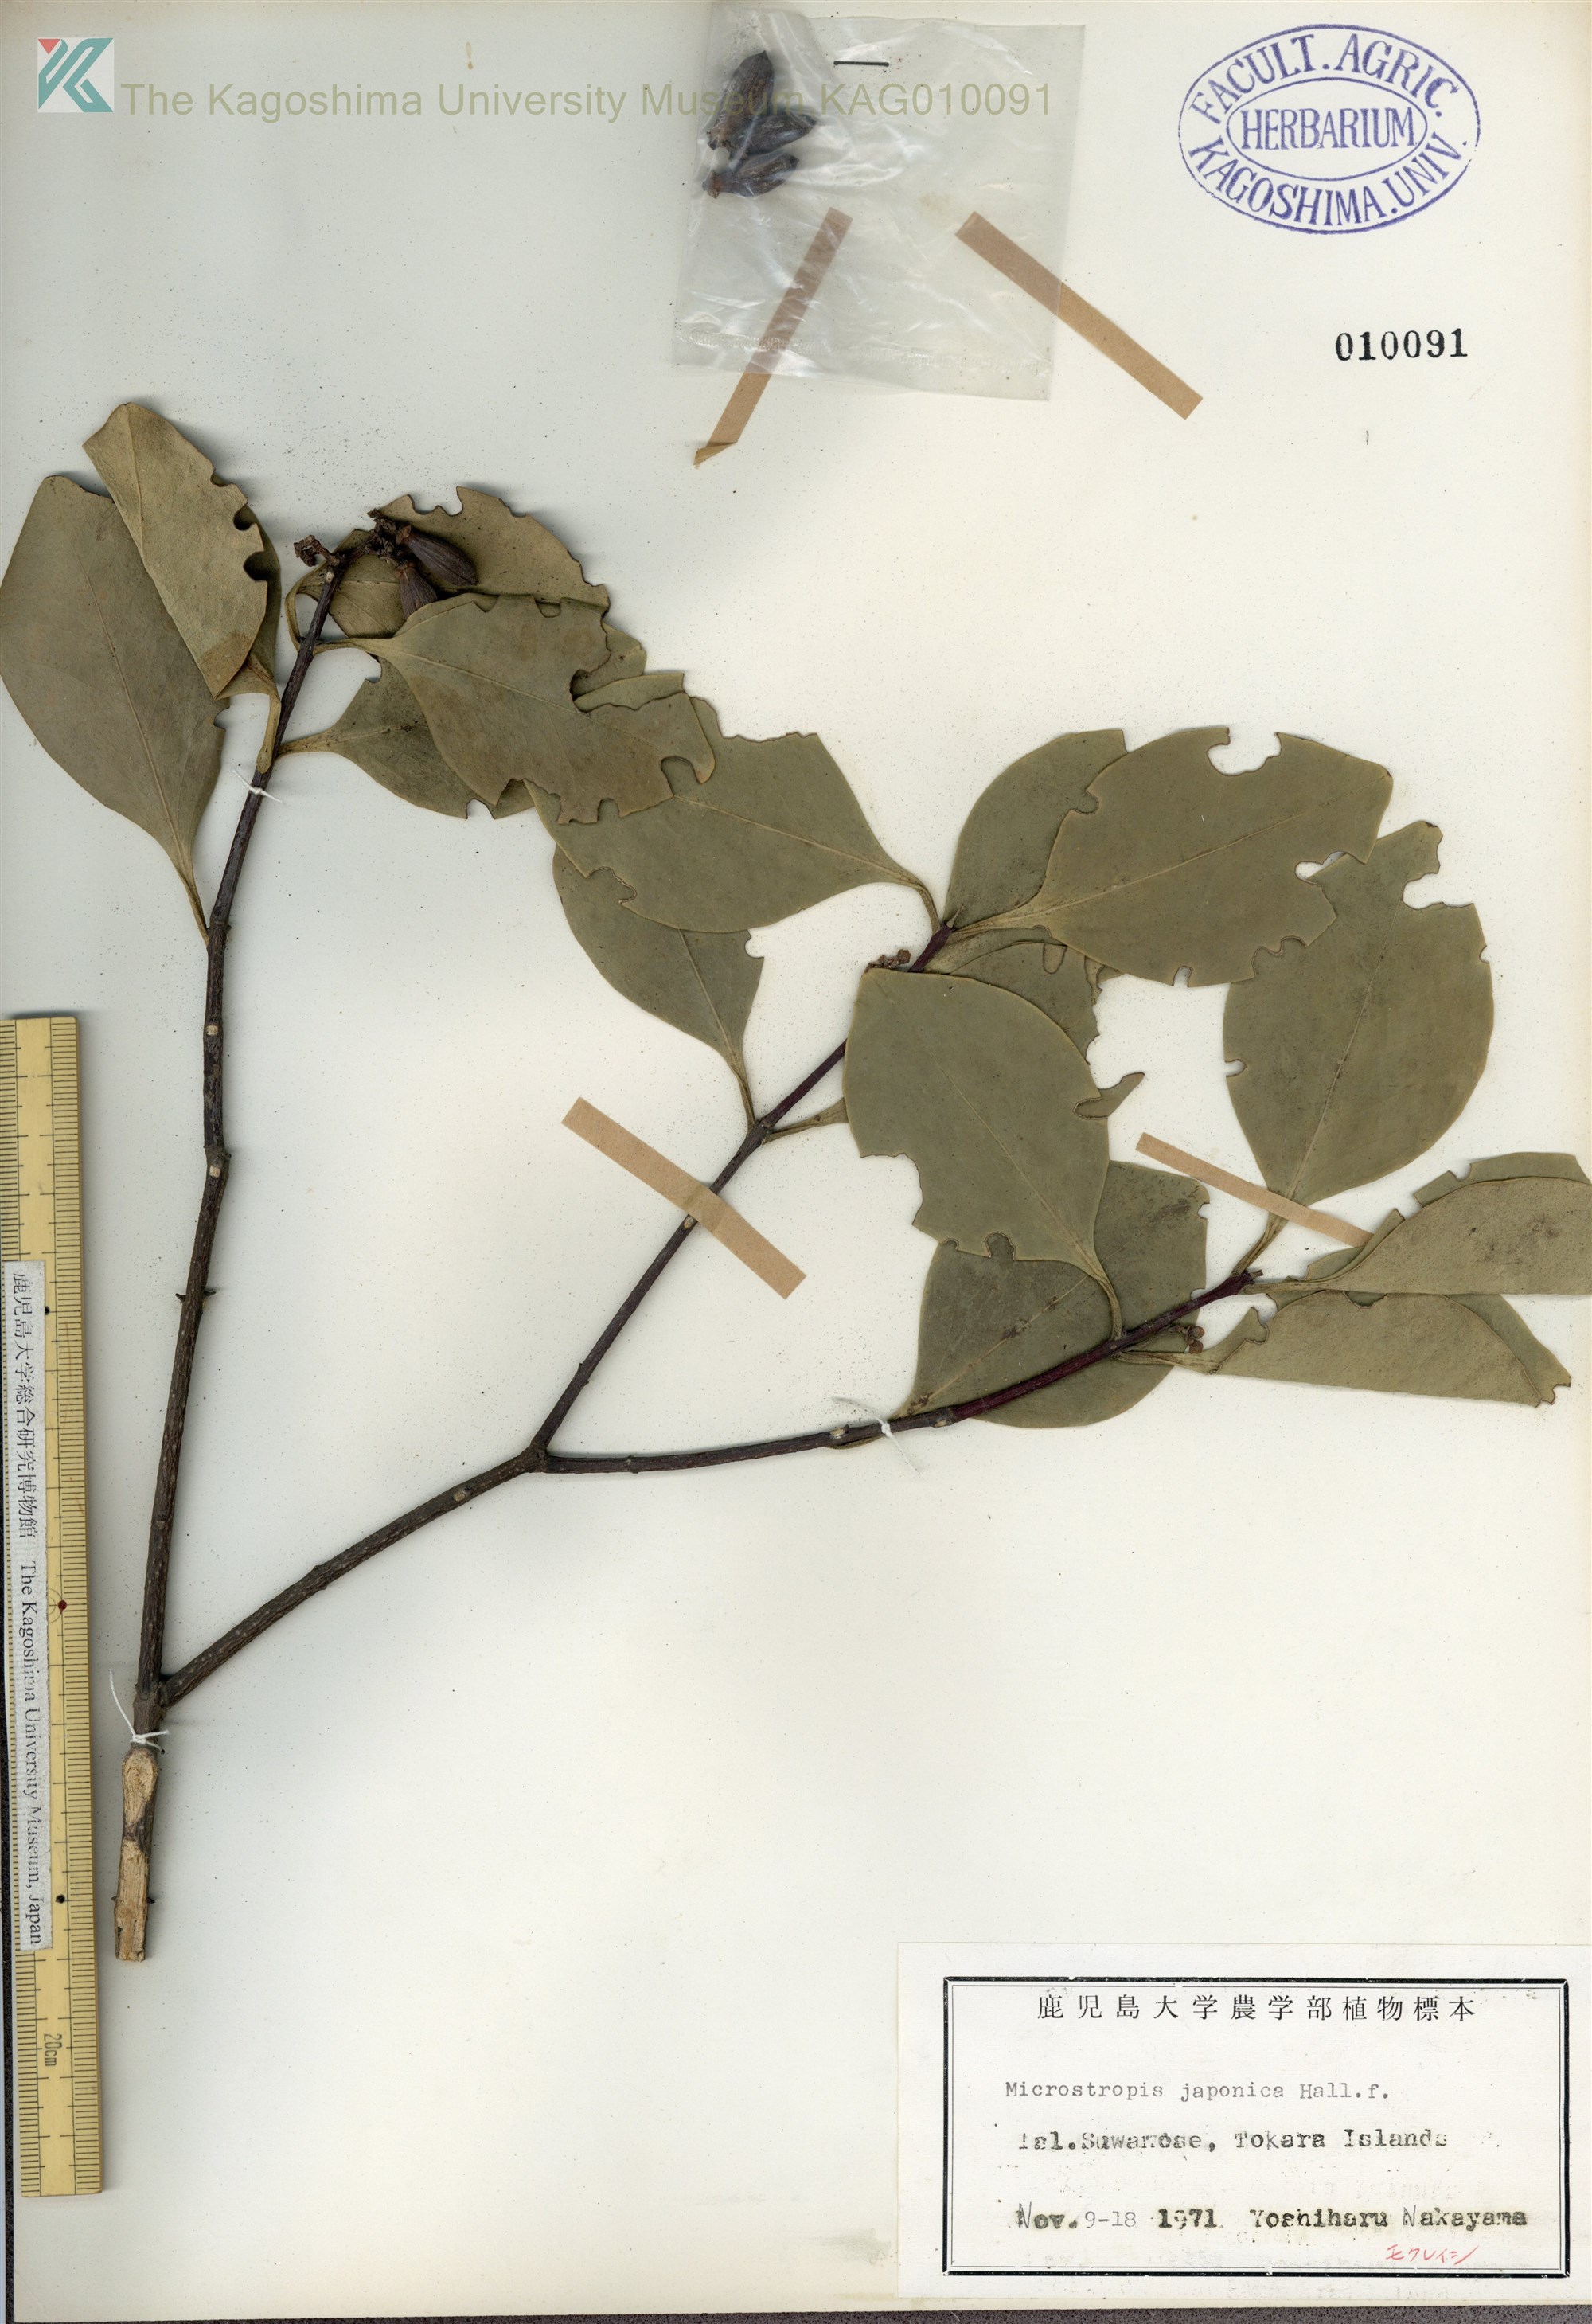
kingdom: Plantae
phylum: Tracheophyta
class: Magnoliopsida
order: Celastrales
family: Celastraceae
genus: Microtropis
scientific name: Microtropis japonica
